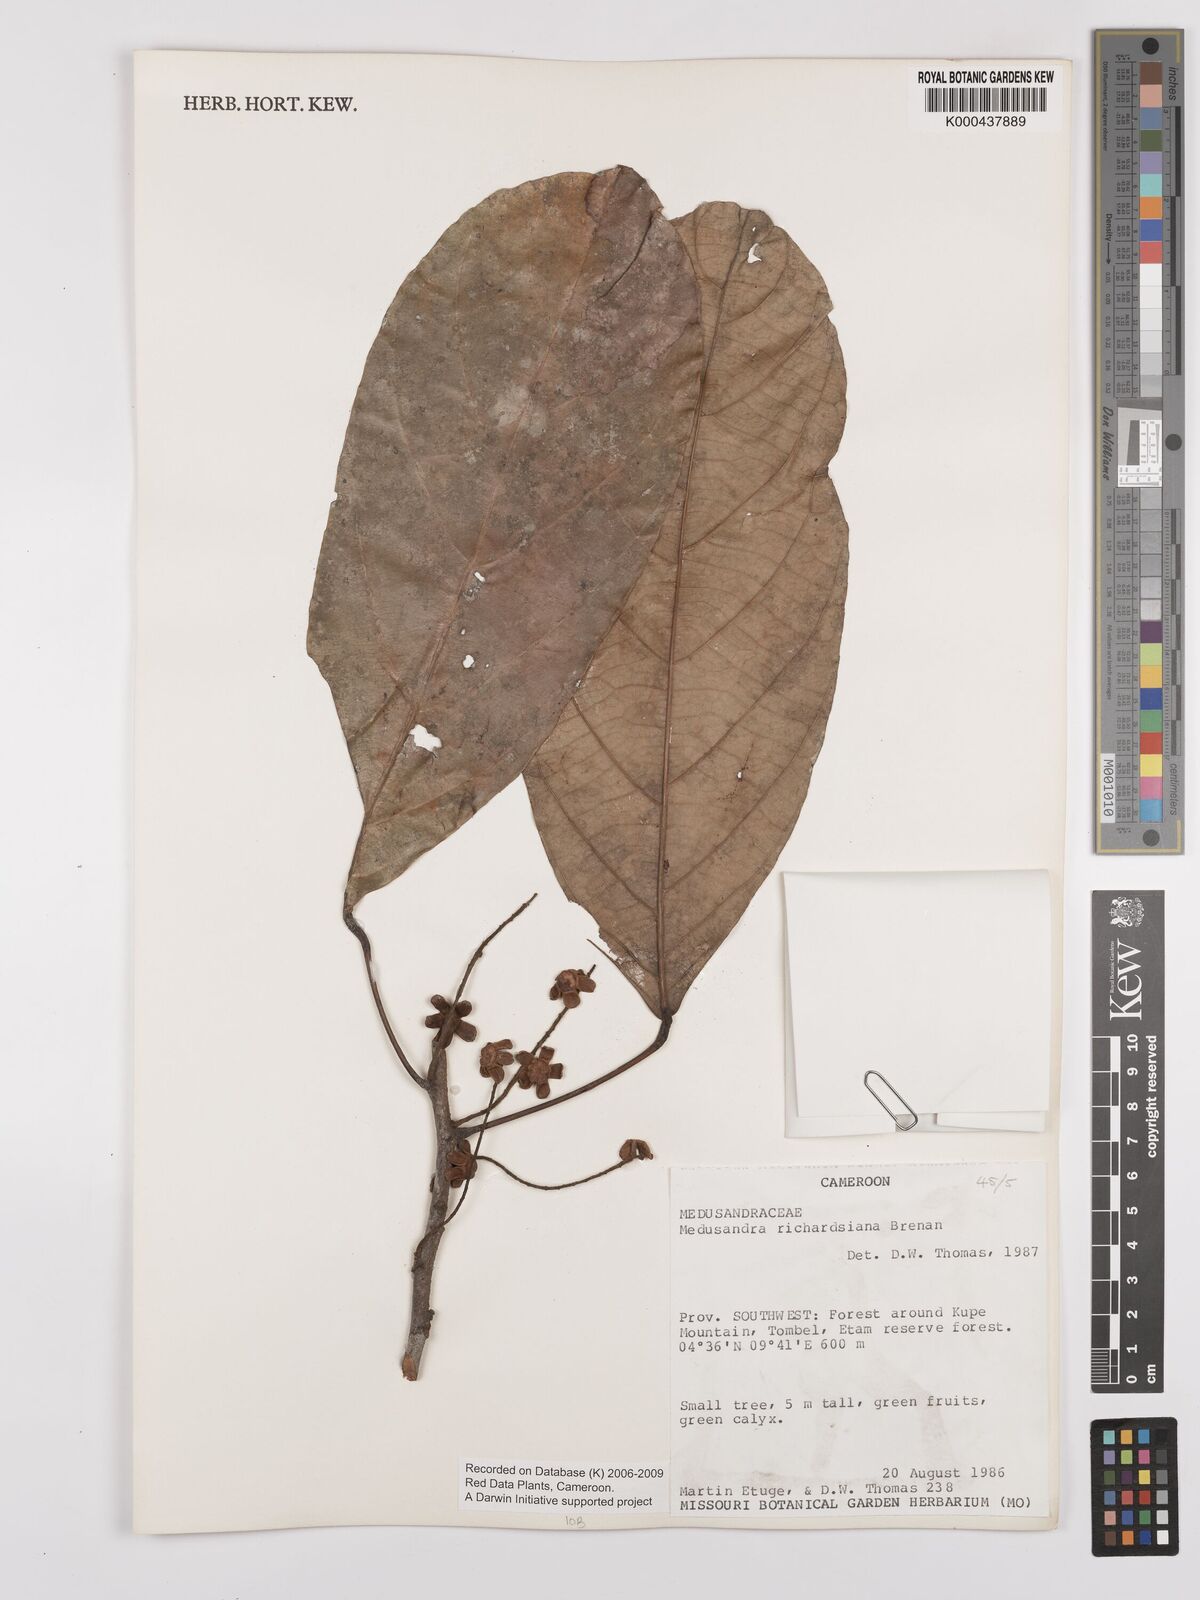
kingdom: Plantae
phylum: Tracheophyta
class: Magnoliopsida
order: Saxifragales
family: Peridiscaceae
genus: Medusandra
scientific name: Medusandra richardsiana
